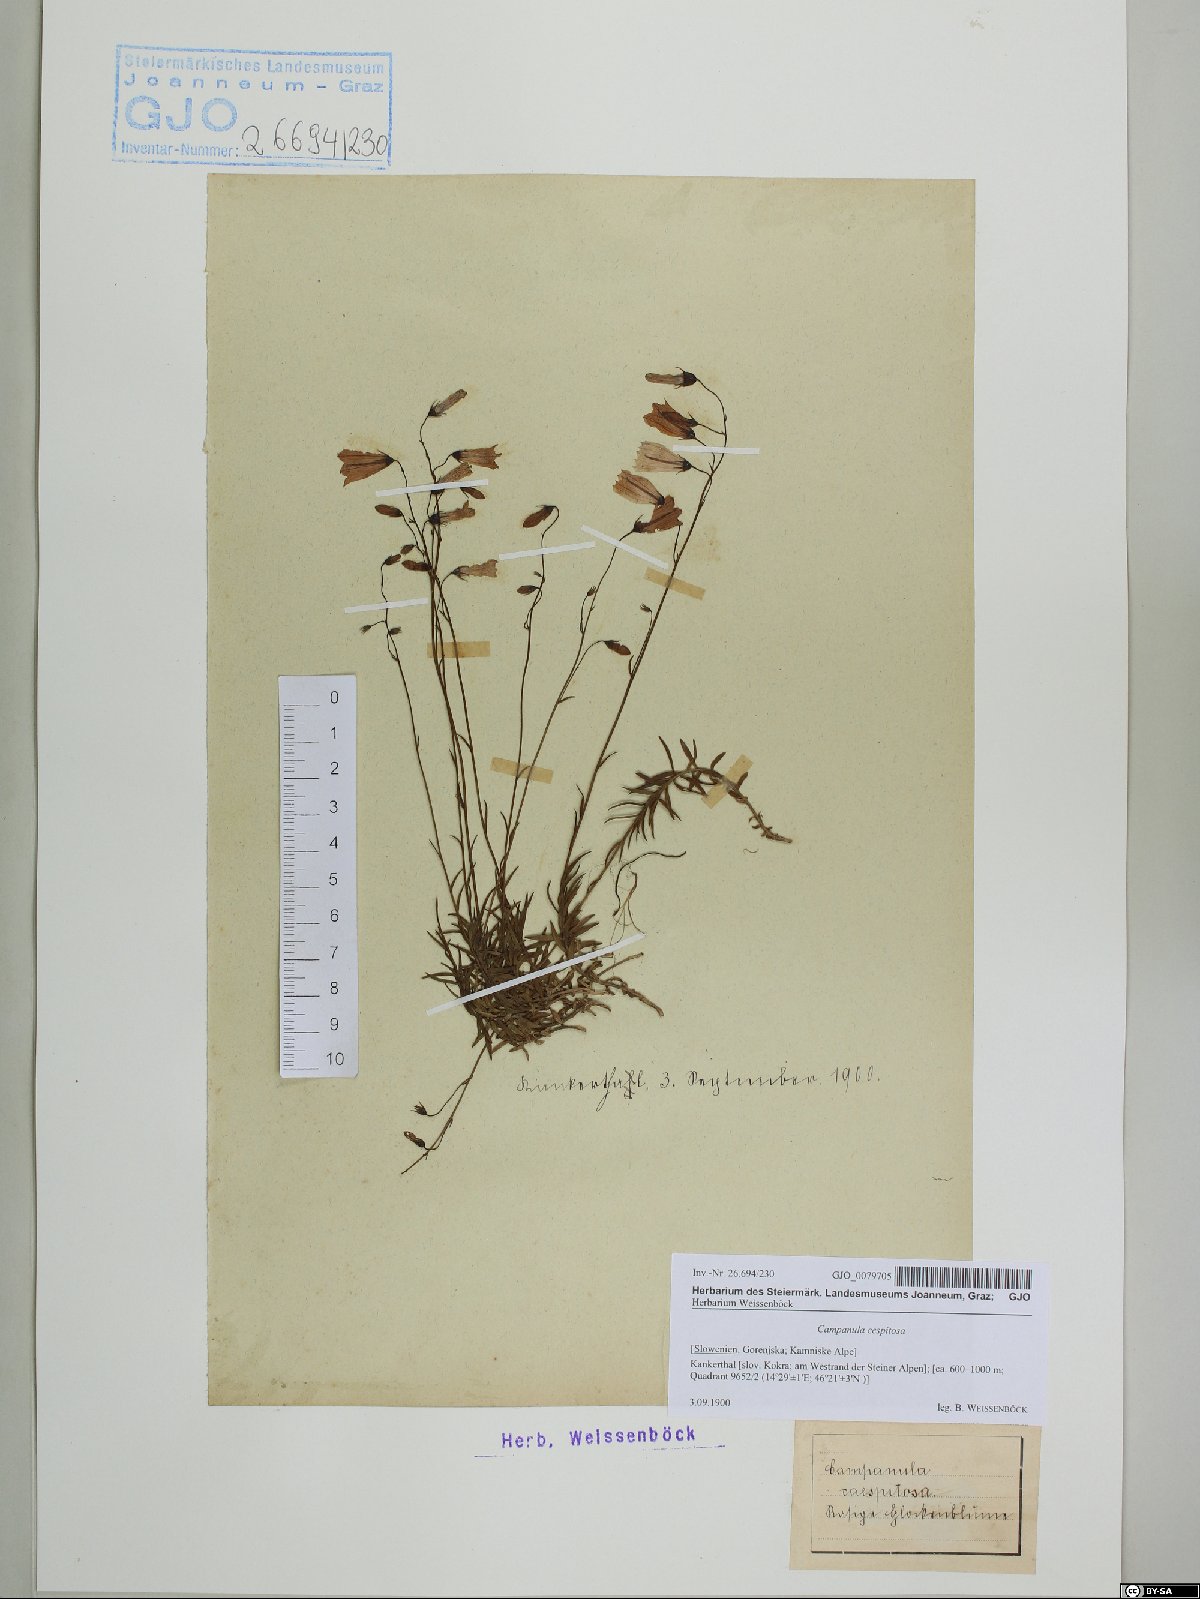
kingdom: Plantae
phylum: Tracheophyta
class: Magnoliopsida
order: Asterales
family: Campanulaceae
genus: Campanula
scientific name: Campanula cespitosa
